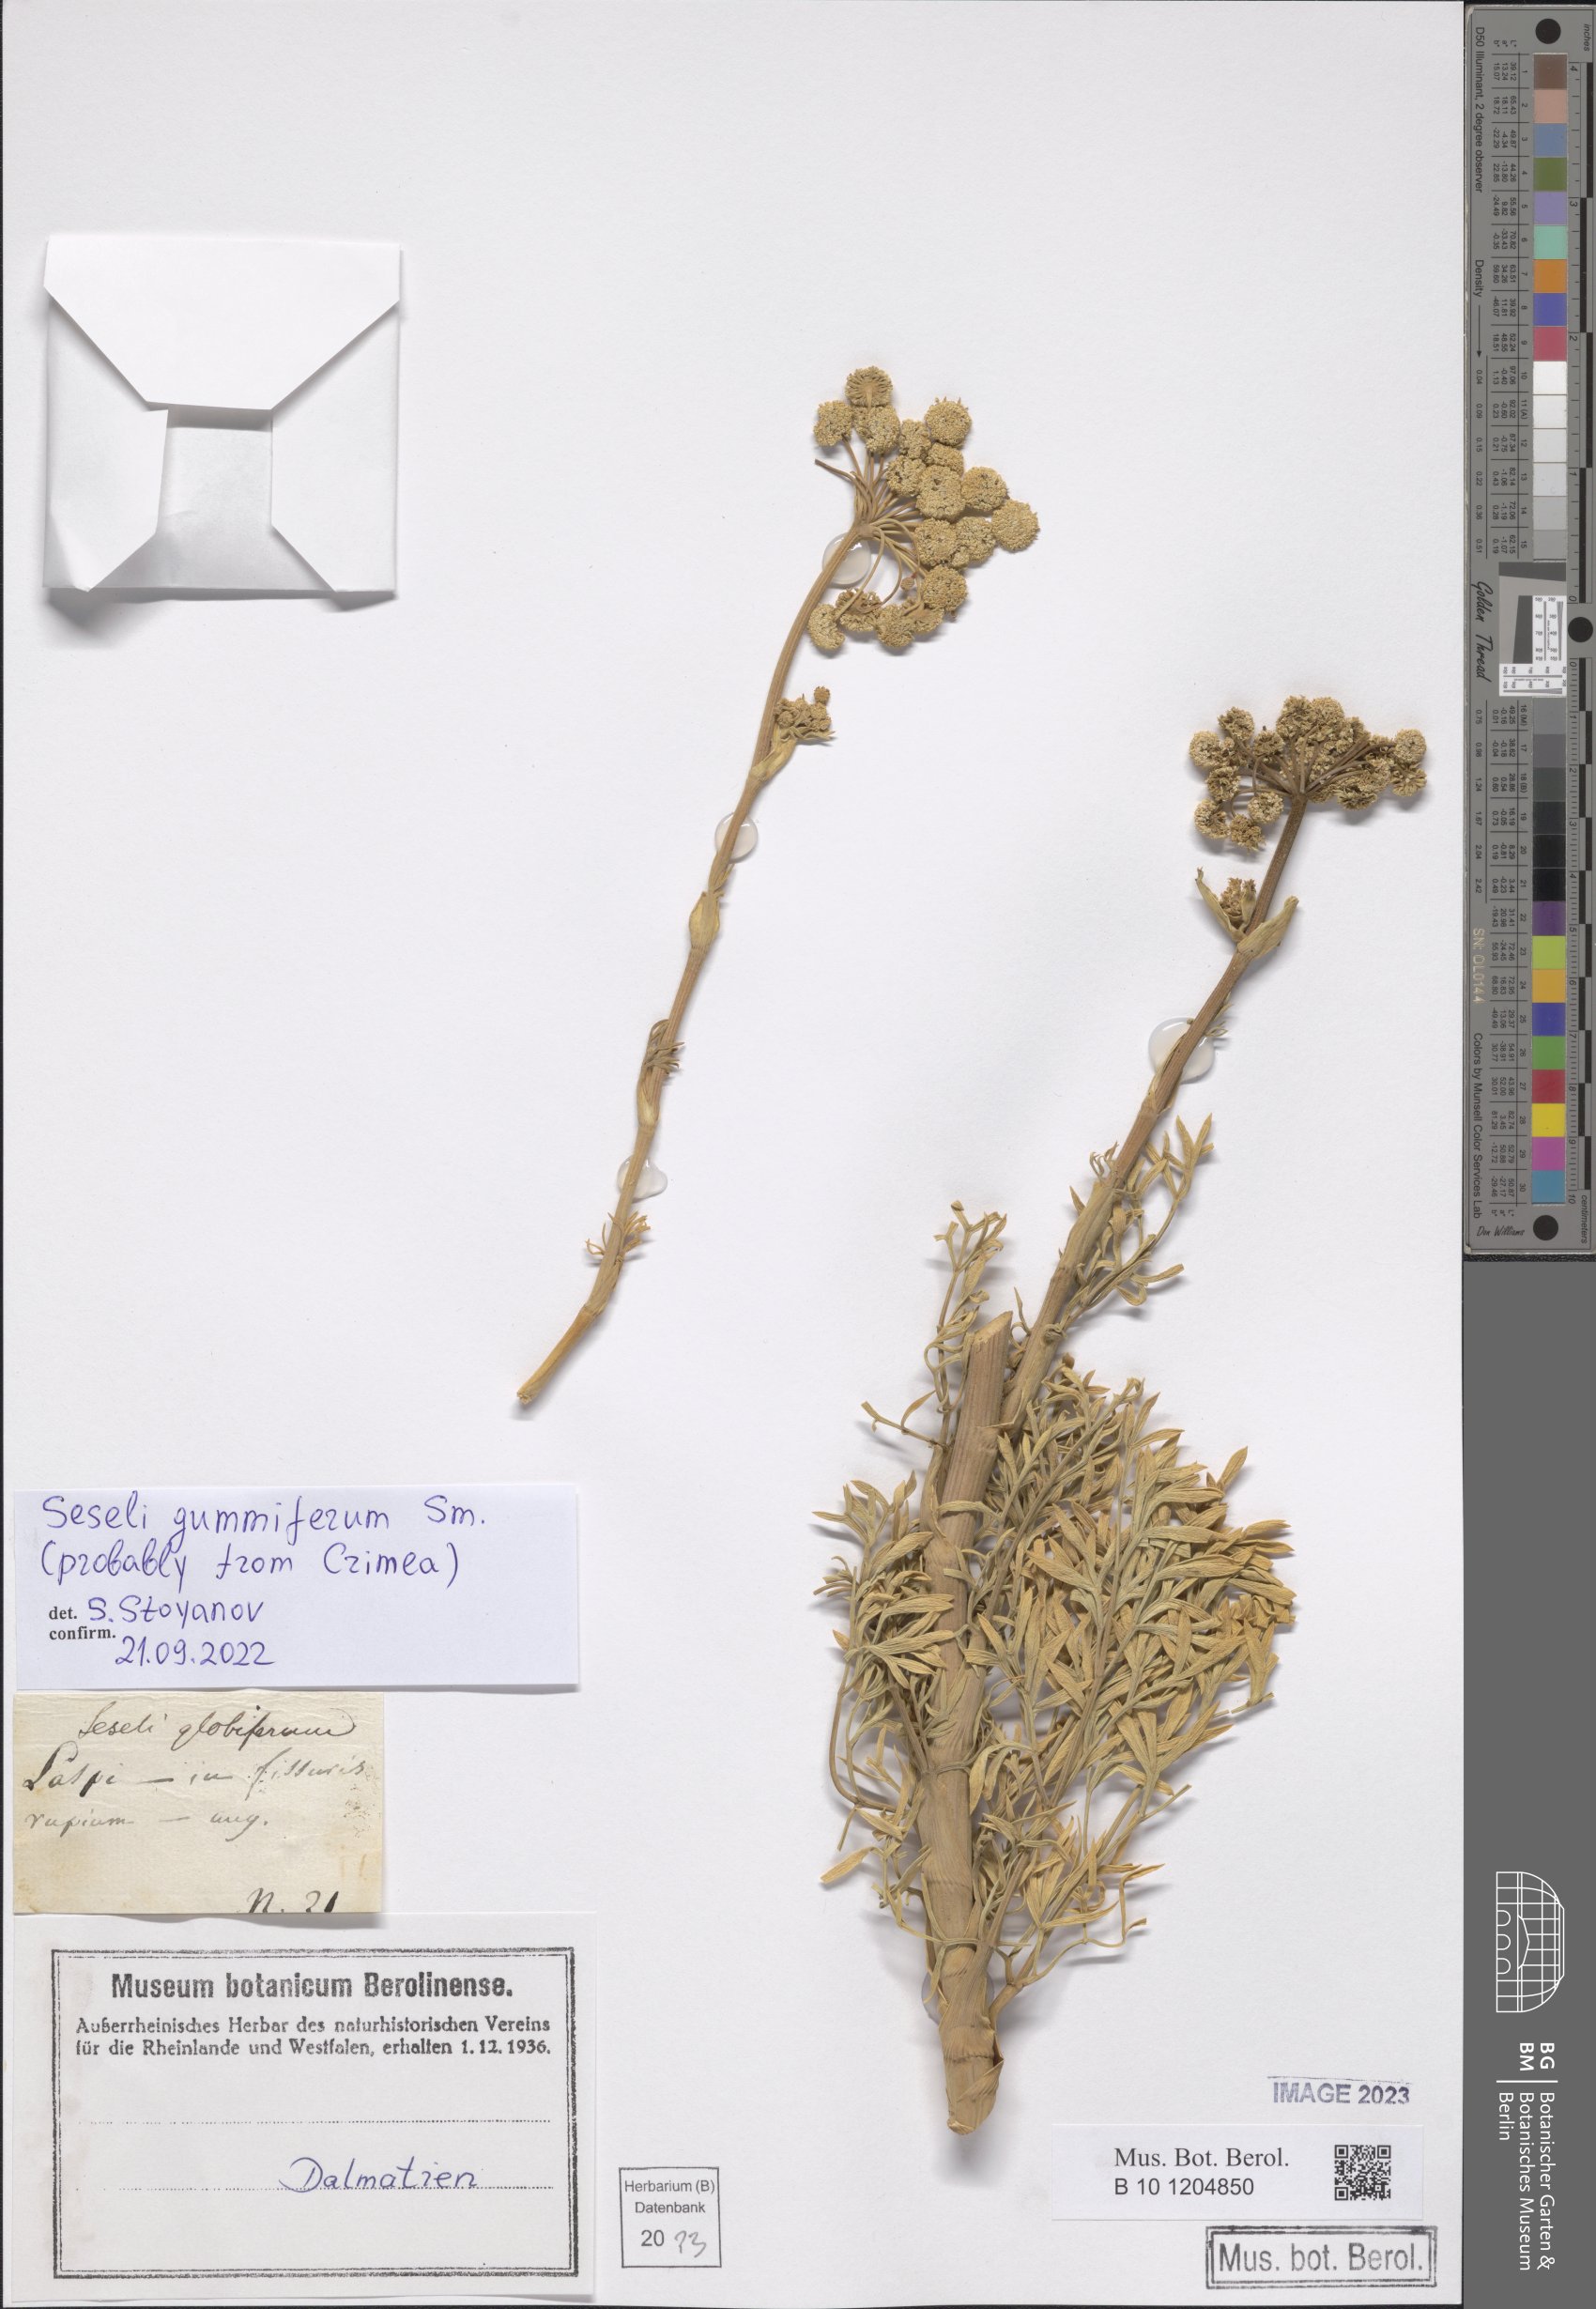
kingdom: Plantae
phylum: Tracheophyta
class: Magnoliopsida
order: Apiales
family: Apiaceae
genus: Seseli
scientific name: Seseli gummiferum
